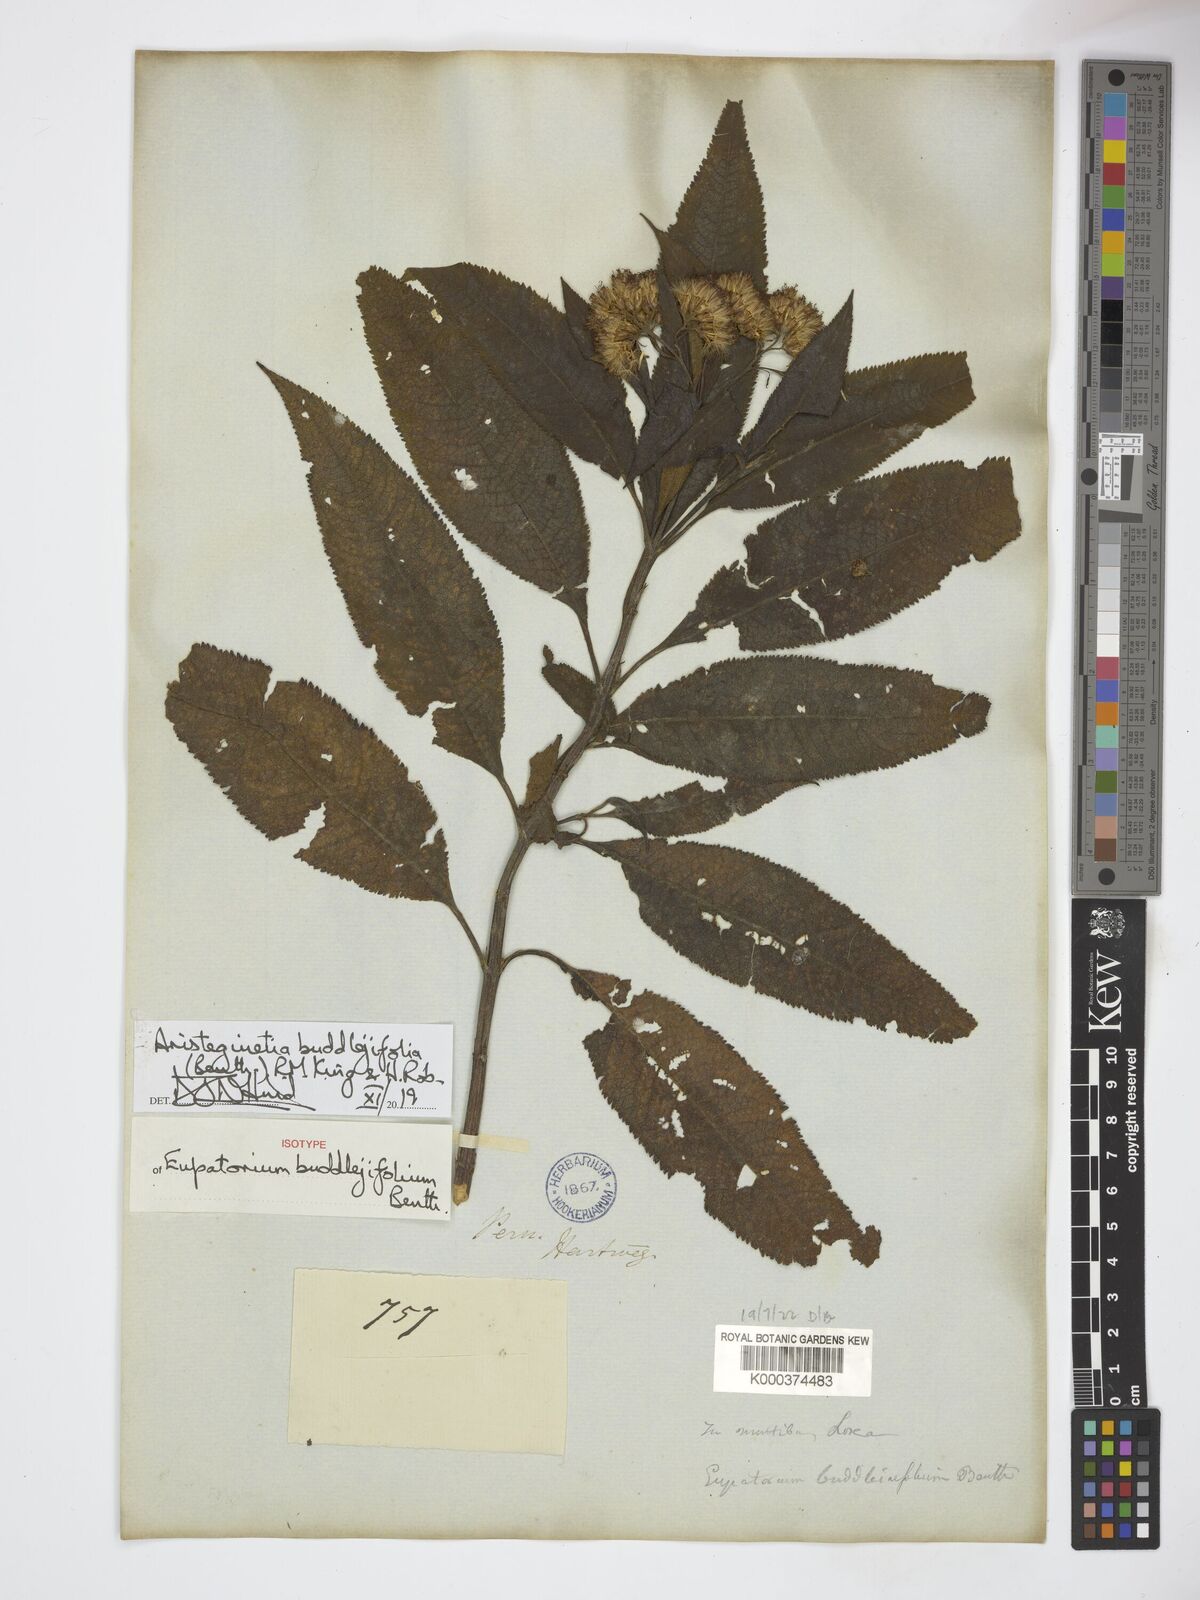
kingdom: Plantae
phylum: Tracheophyta
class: Magnoliopsida
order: Asterales
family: Asteraceae
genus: Aristeguietia
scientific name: Aristeguietia buddlejifolia
